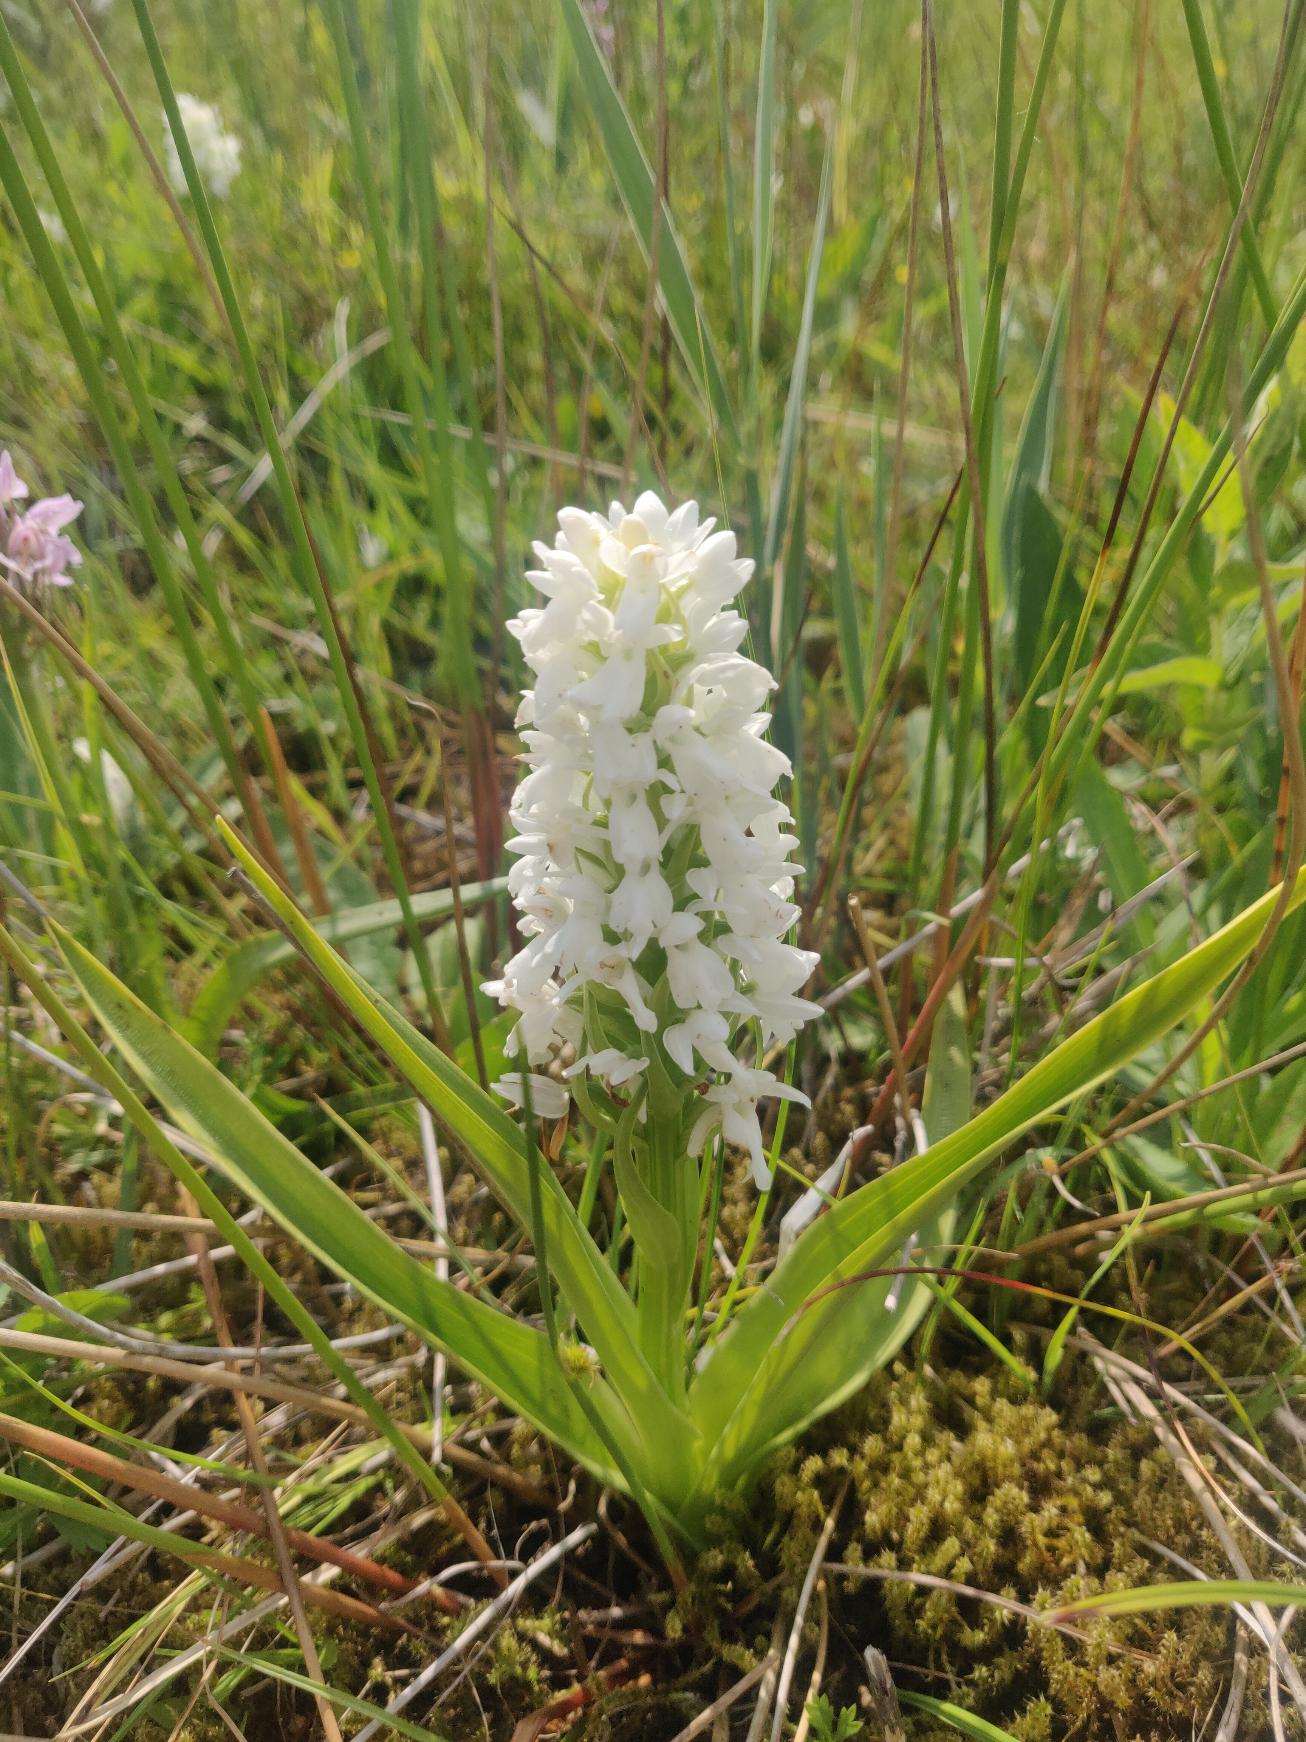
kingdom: Plantae
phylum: Tracheophyta
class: Liliopsida
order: Asparagales
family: Orchidaceae
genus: Dactylorhiza
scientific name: Dactylorhiza majalis
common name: Thy-gøgeurt
